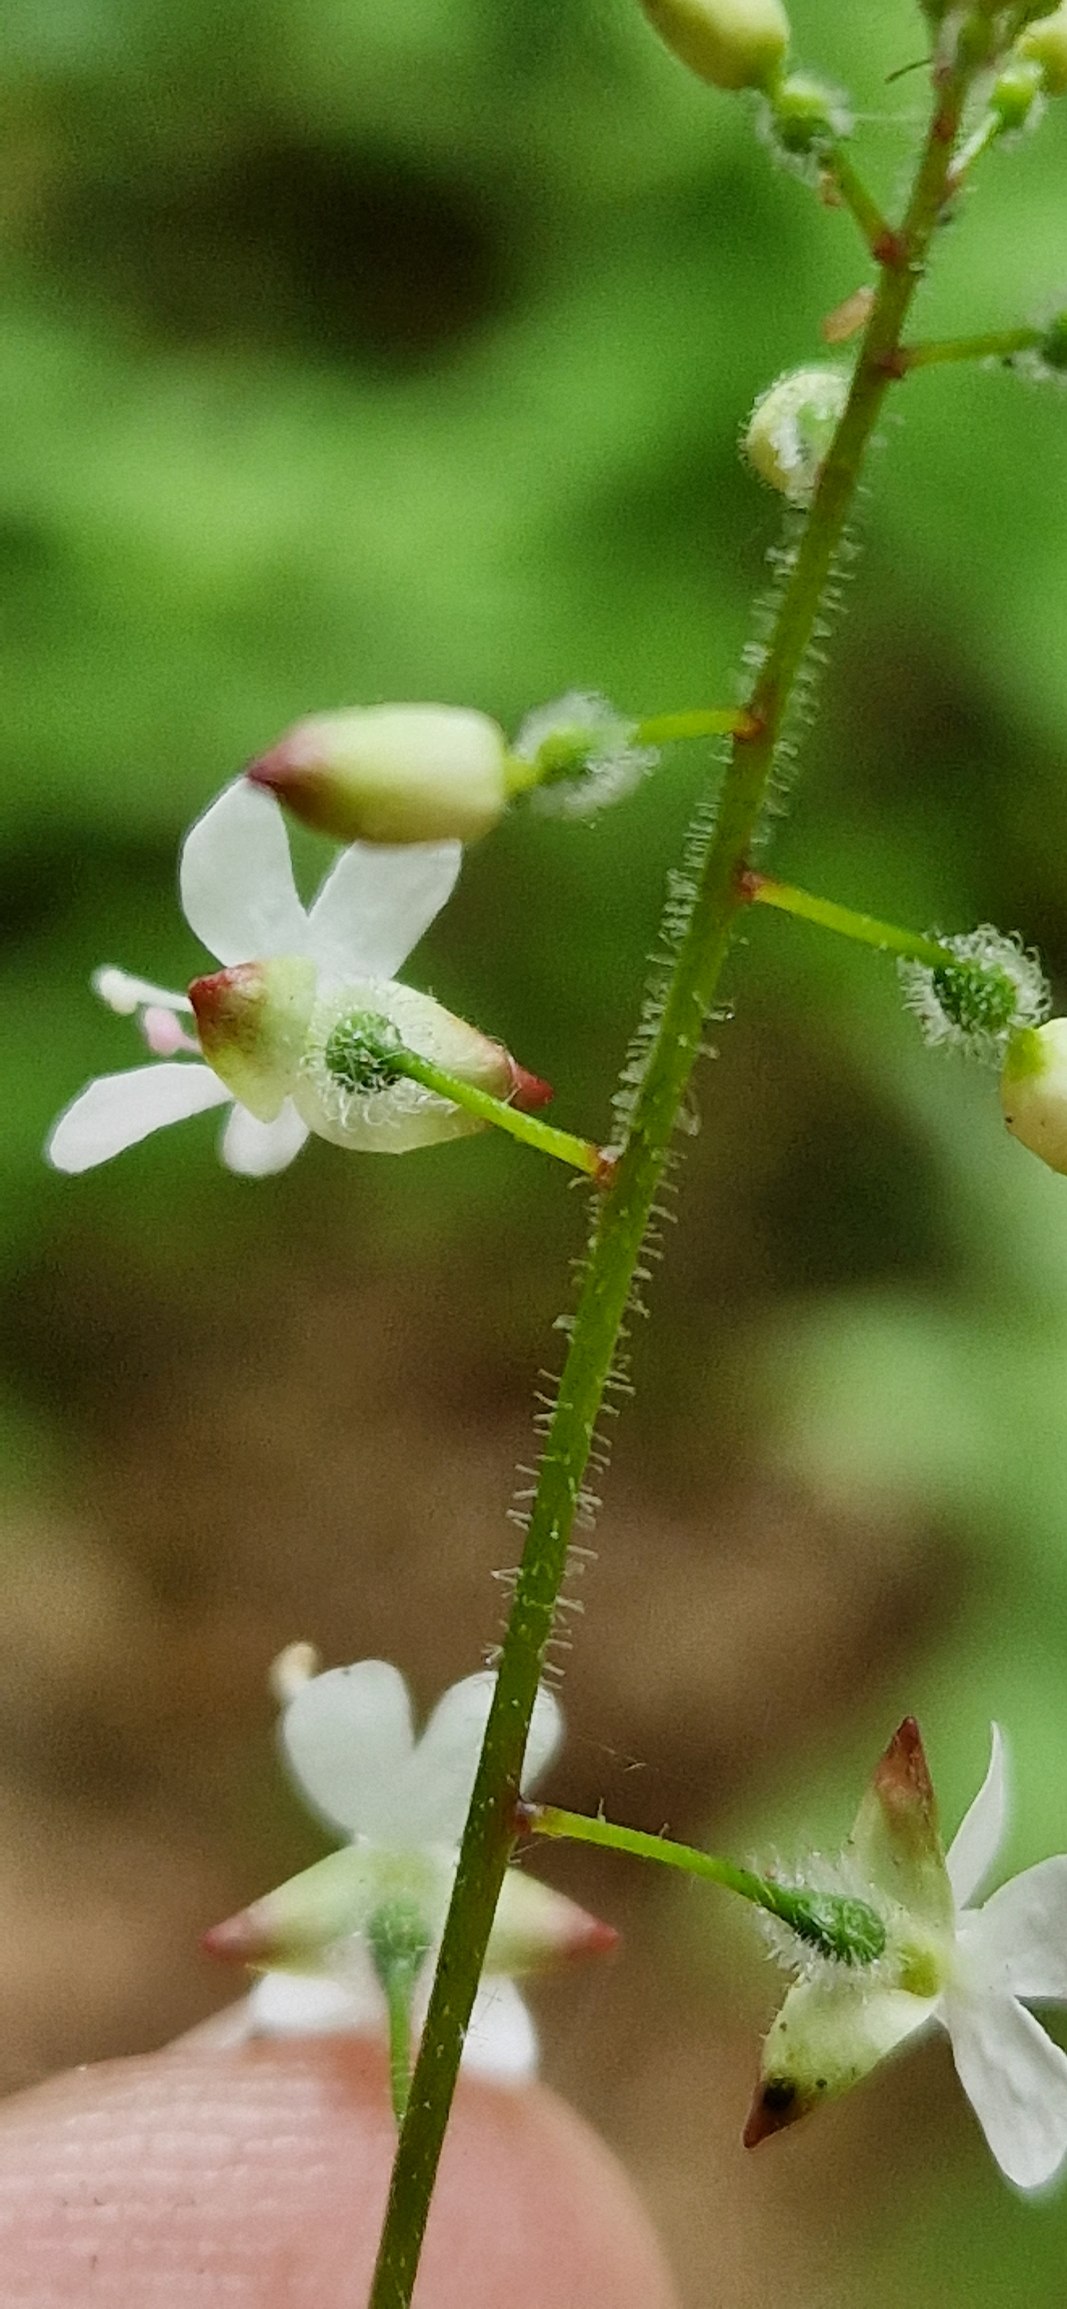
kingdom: Plantae
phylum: Tracheophyta
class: Magnoliopsida
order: Myrtales
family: Onagraceae
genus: Circaea
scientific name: Circaea intermedia
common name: Spidsbladet steffensurt
